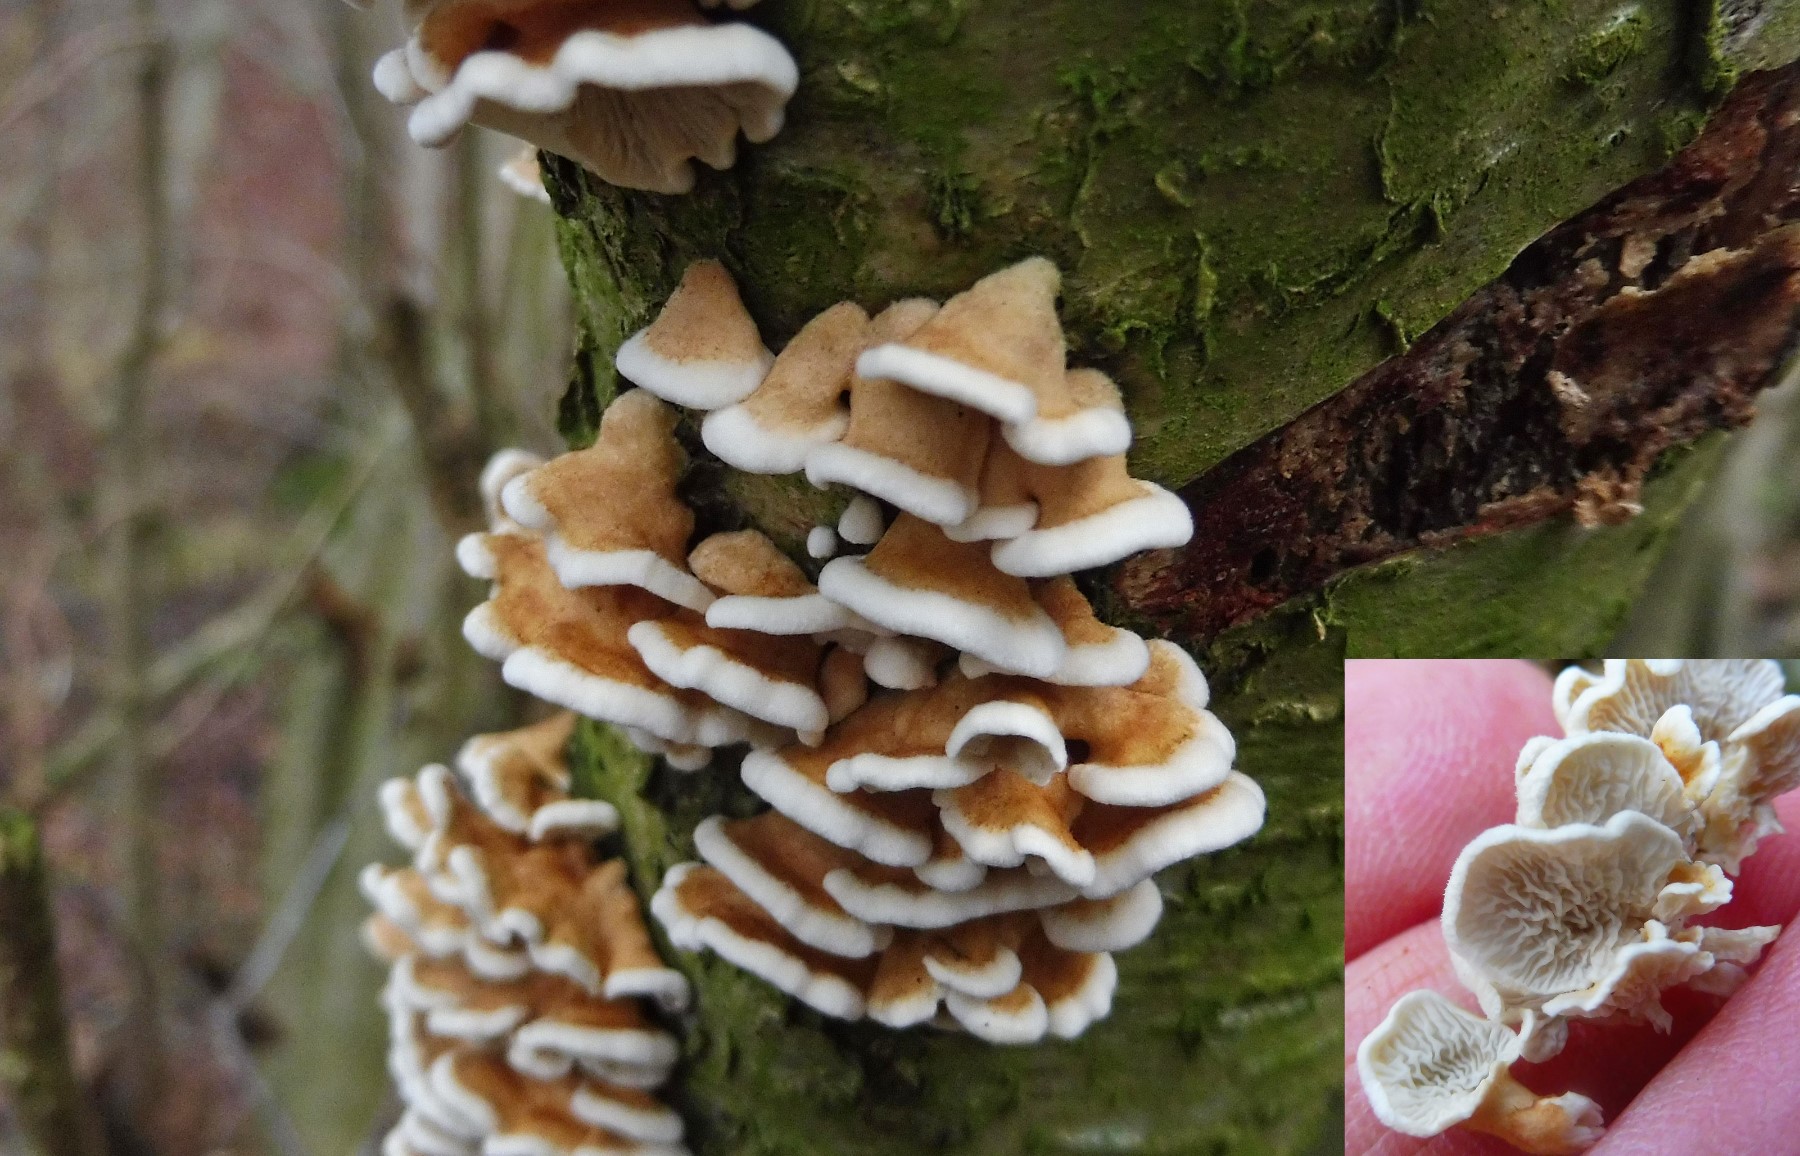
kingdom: Fungi
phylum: Basidiomycota
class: Agaricomycetes
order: Amylocorticiales
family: Amylocorticiaceae
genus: Plicaturopsis
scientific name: Plicaturopsis crispa
